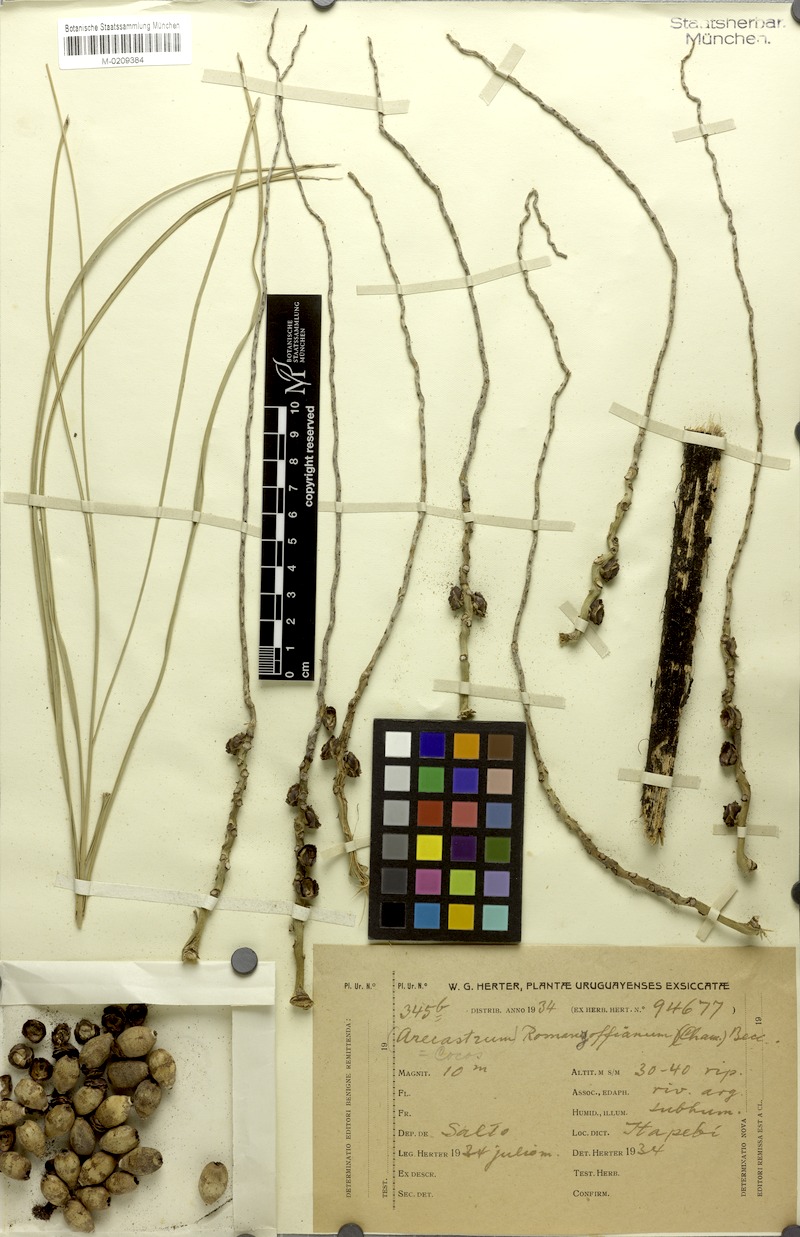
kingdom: Plantae
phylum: Tracheophyta
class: Liliopsida
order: Arecales
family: Arecaceae
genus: Syagrus
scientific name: Syagrus romanzoffiana
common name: Queen palm
